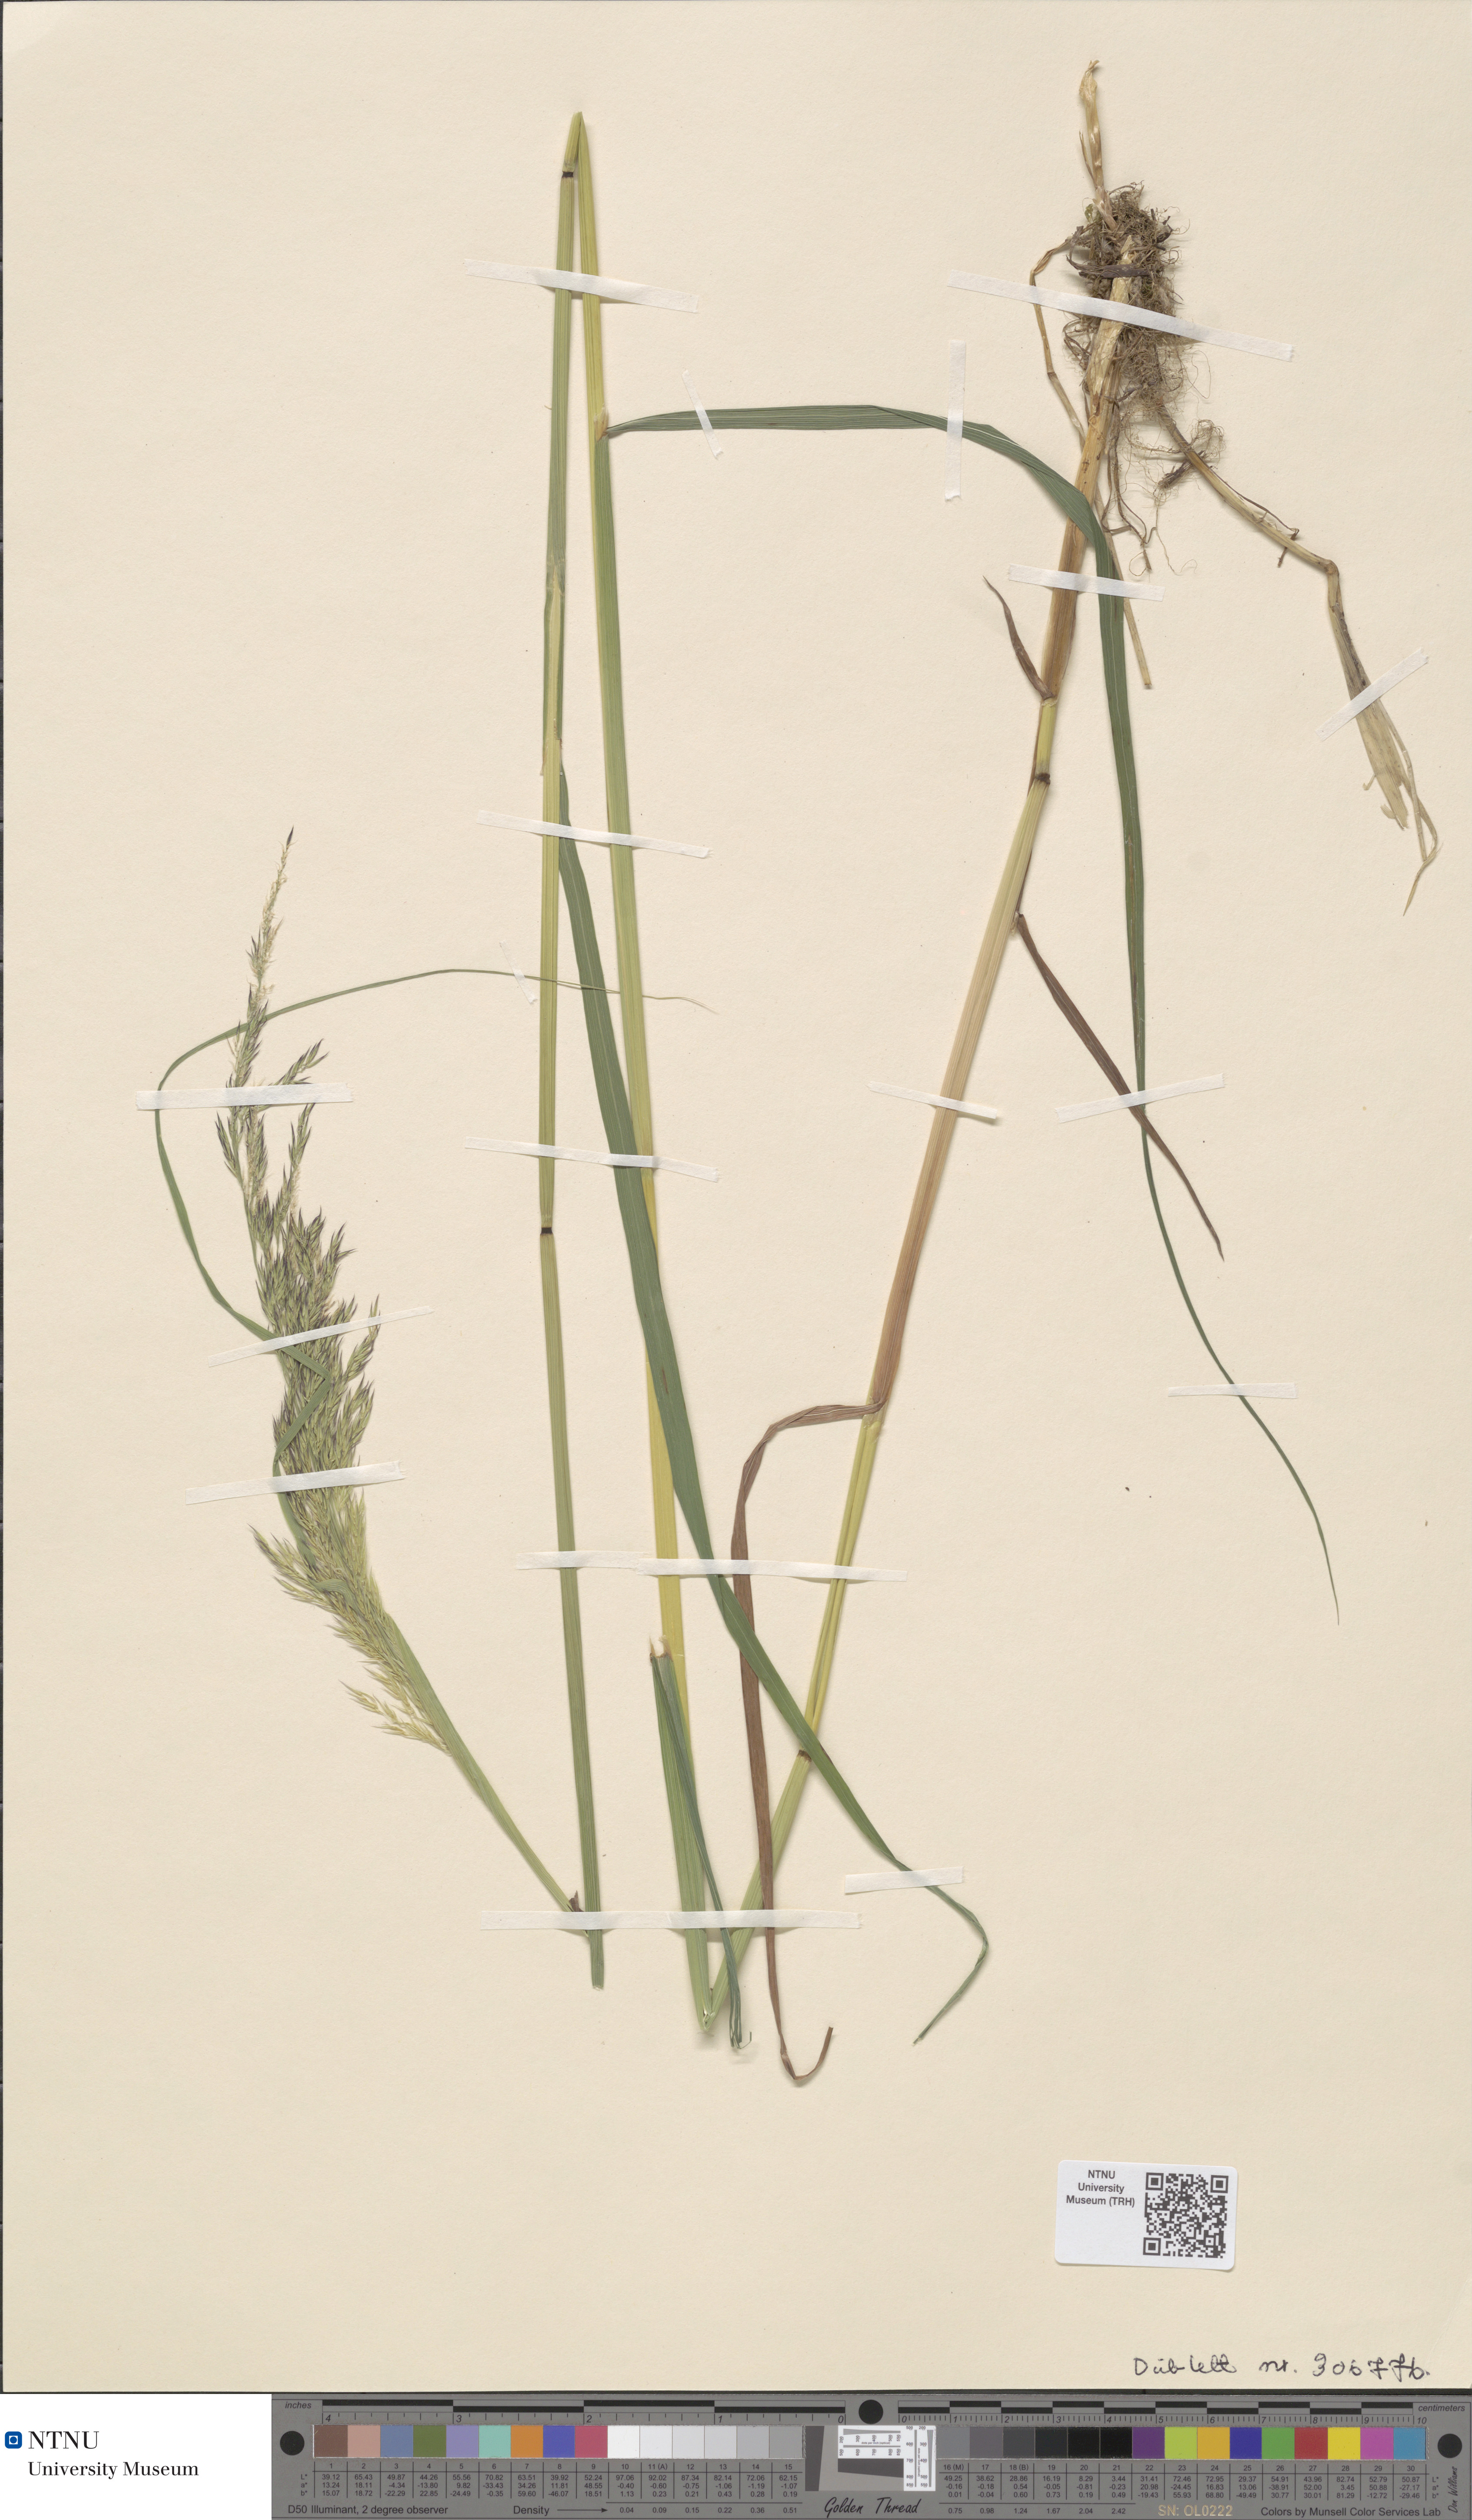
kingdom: Plantae
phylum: Tracheophyta
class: Liliopsida
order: Poales
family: Poaceae
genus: Calamagrostis
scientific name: Calamagrostis purpurea
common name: Scandinavian small-reed
